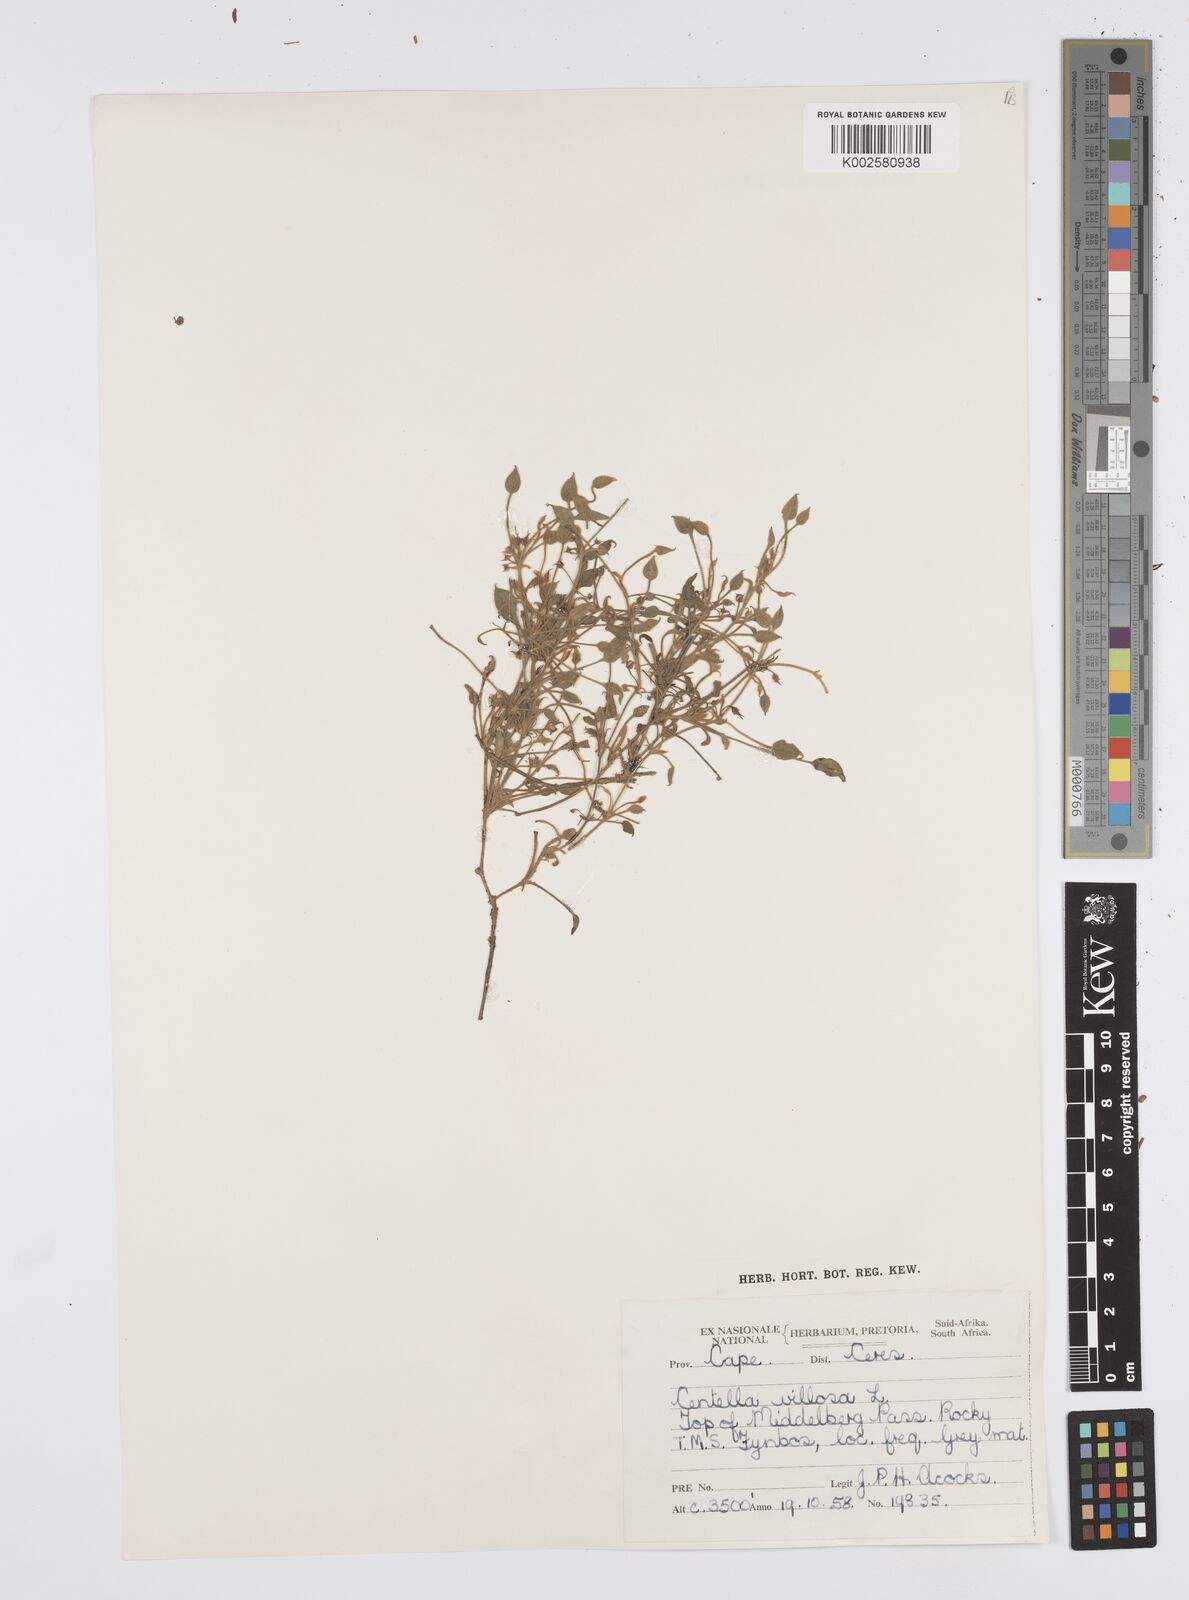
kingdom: Plantae
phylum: Tracheophyta
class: Magnoliopsida
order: Apiales
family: Apiaceae
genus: Centella
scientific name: Centella villosa
